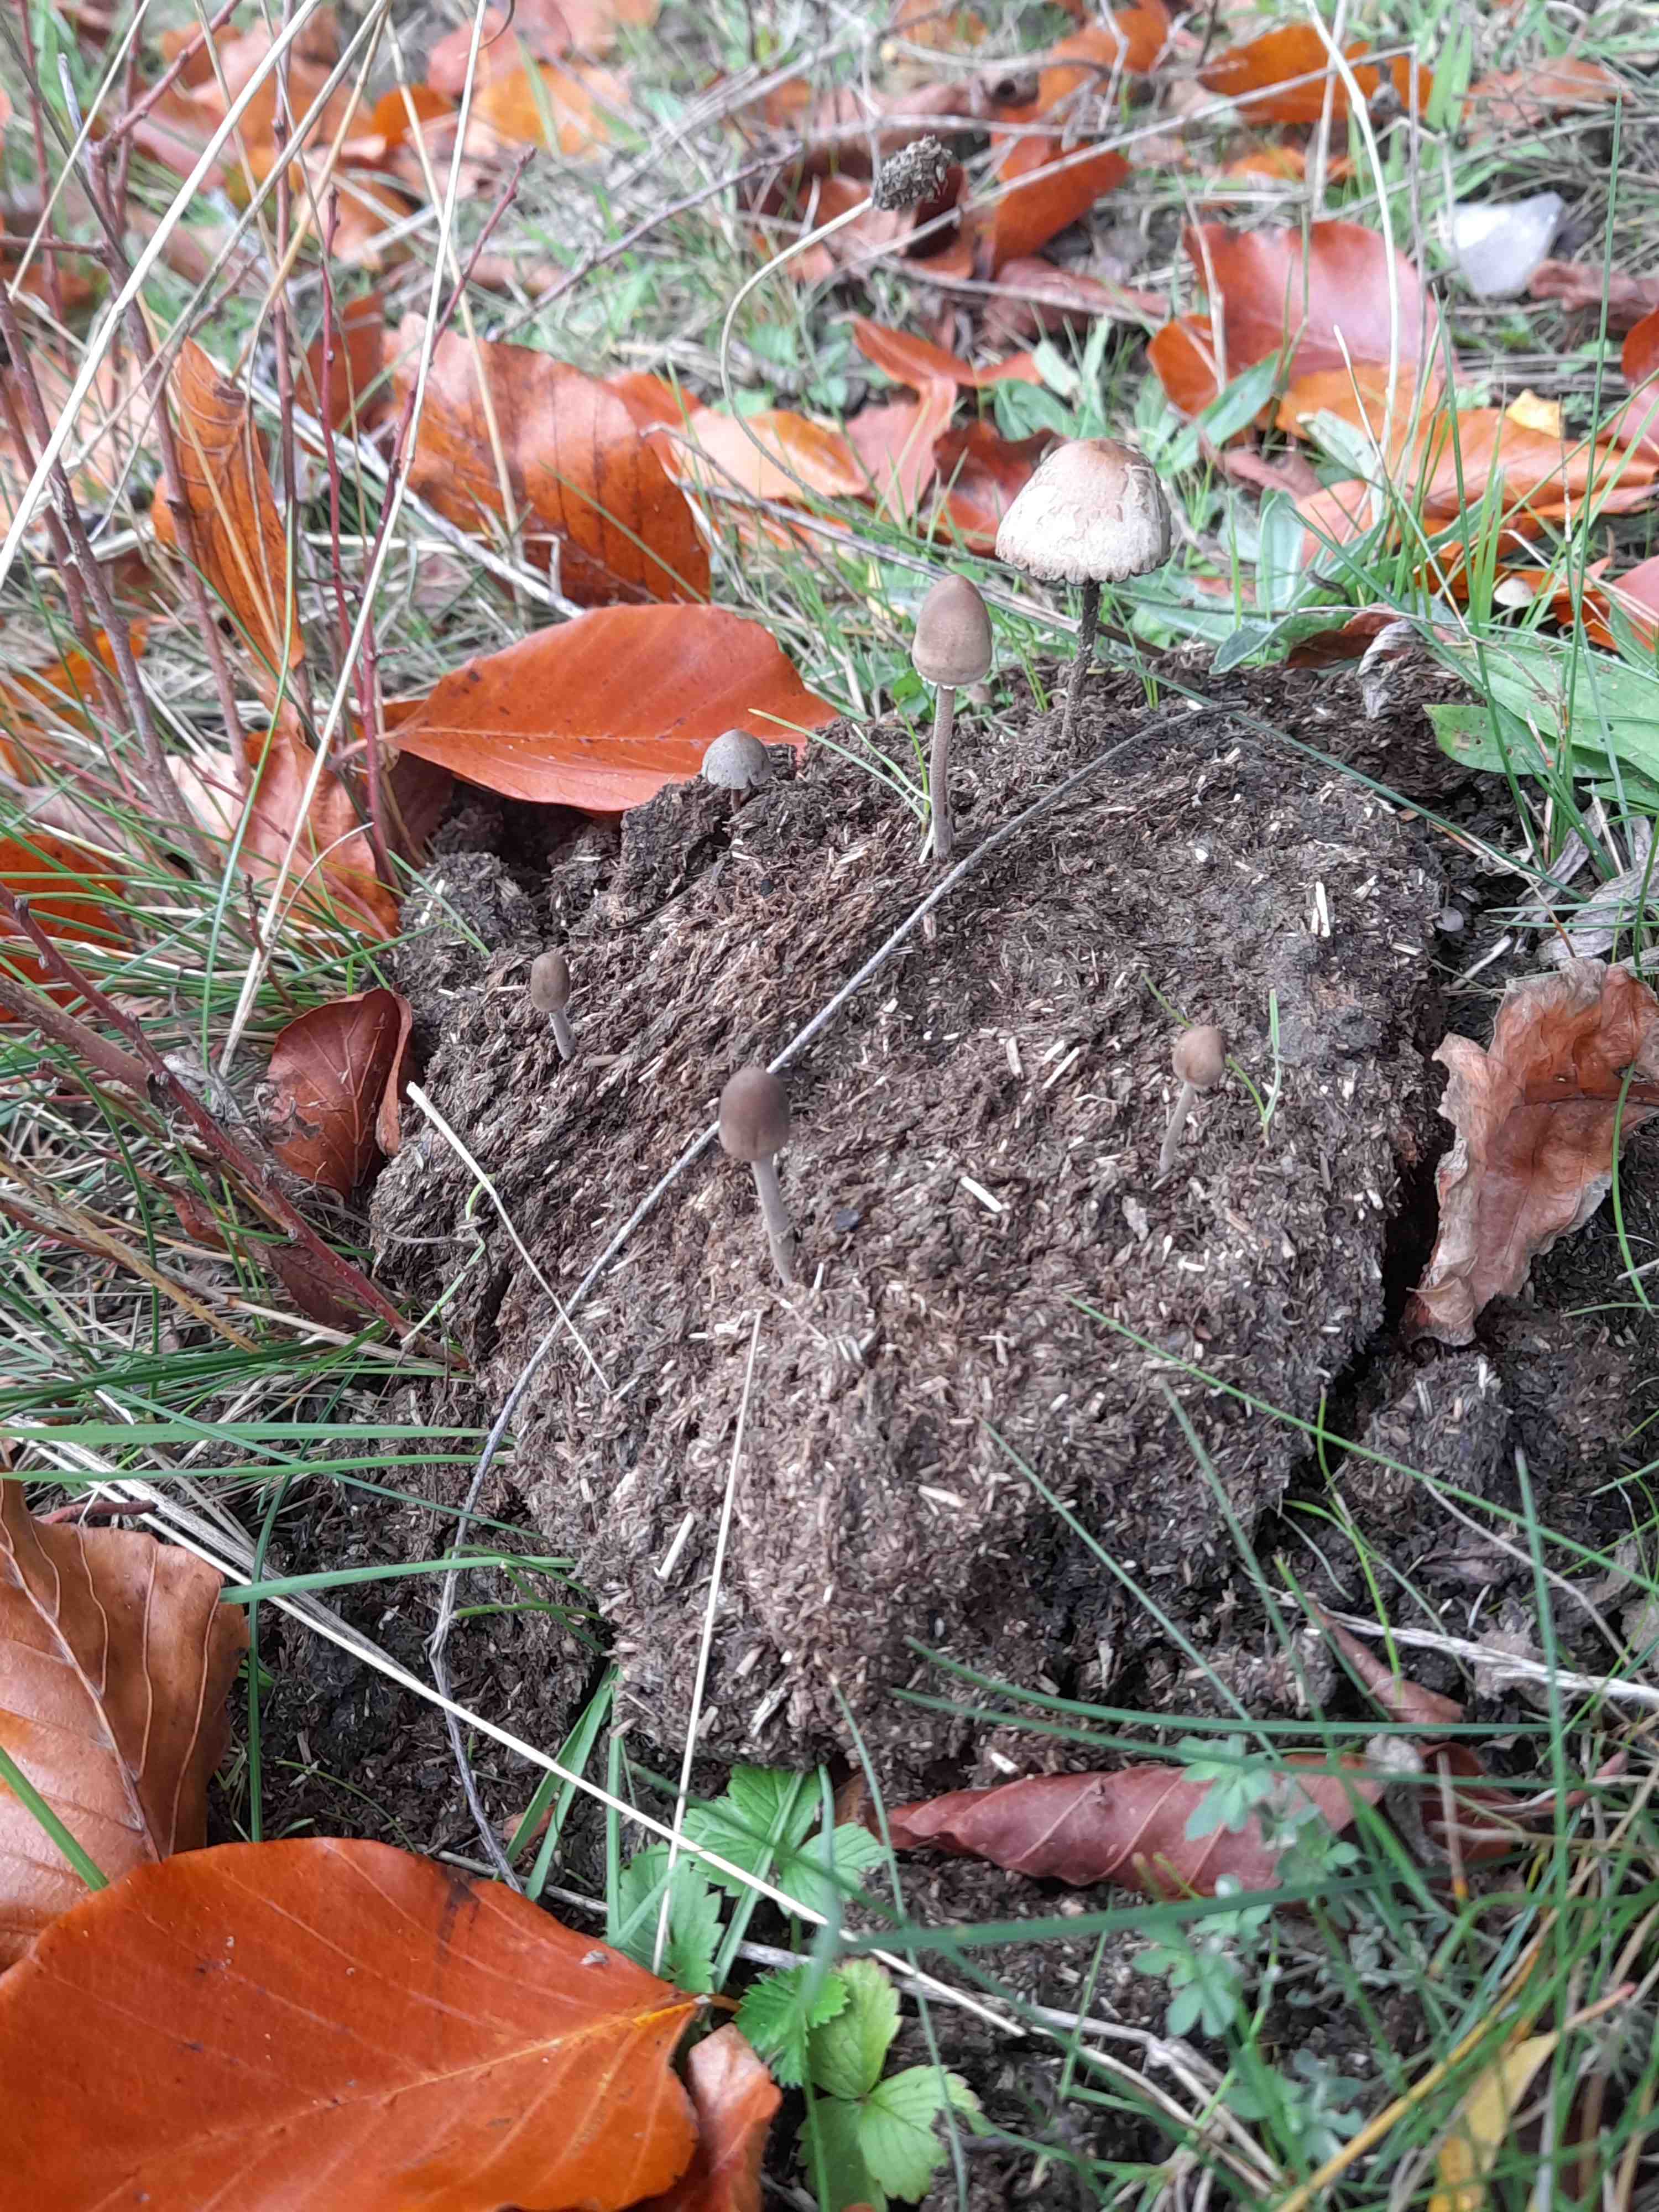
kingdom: Fungi
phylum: Basidiomycota
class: Agaricomycetes
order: Agaricales
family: Bolbitiaceae
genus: Panaeolus
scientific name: Panaeolus papilionaceus
